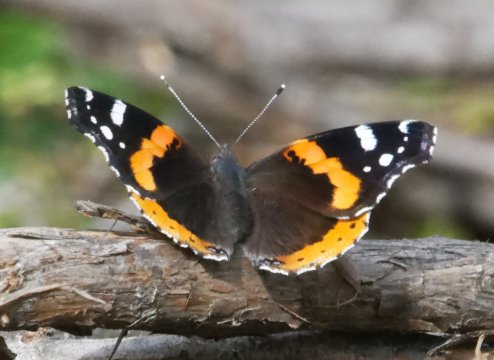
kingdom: Animalia
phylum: Arthropoda
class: Insecta
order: Lepidoptera
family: Nymphalidae
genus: Vanessa
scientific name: Vanessa atalanta
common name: Red Admiral
